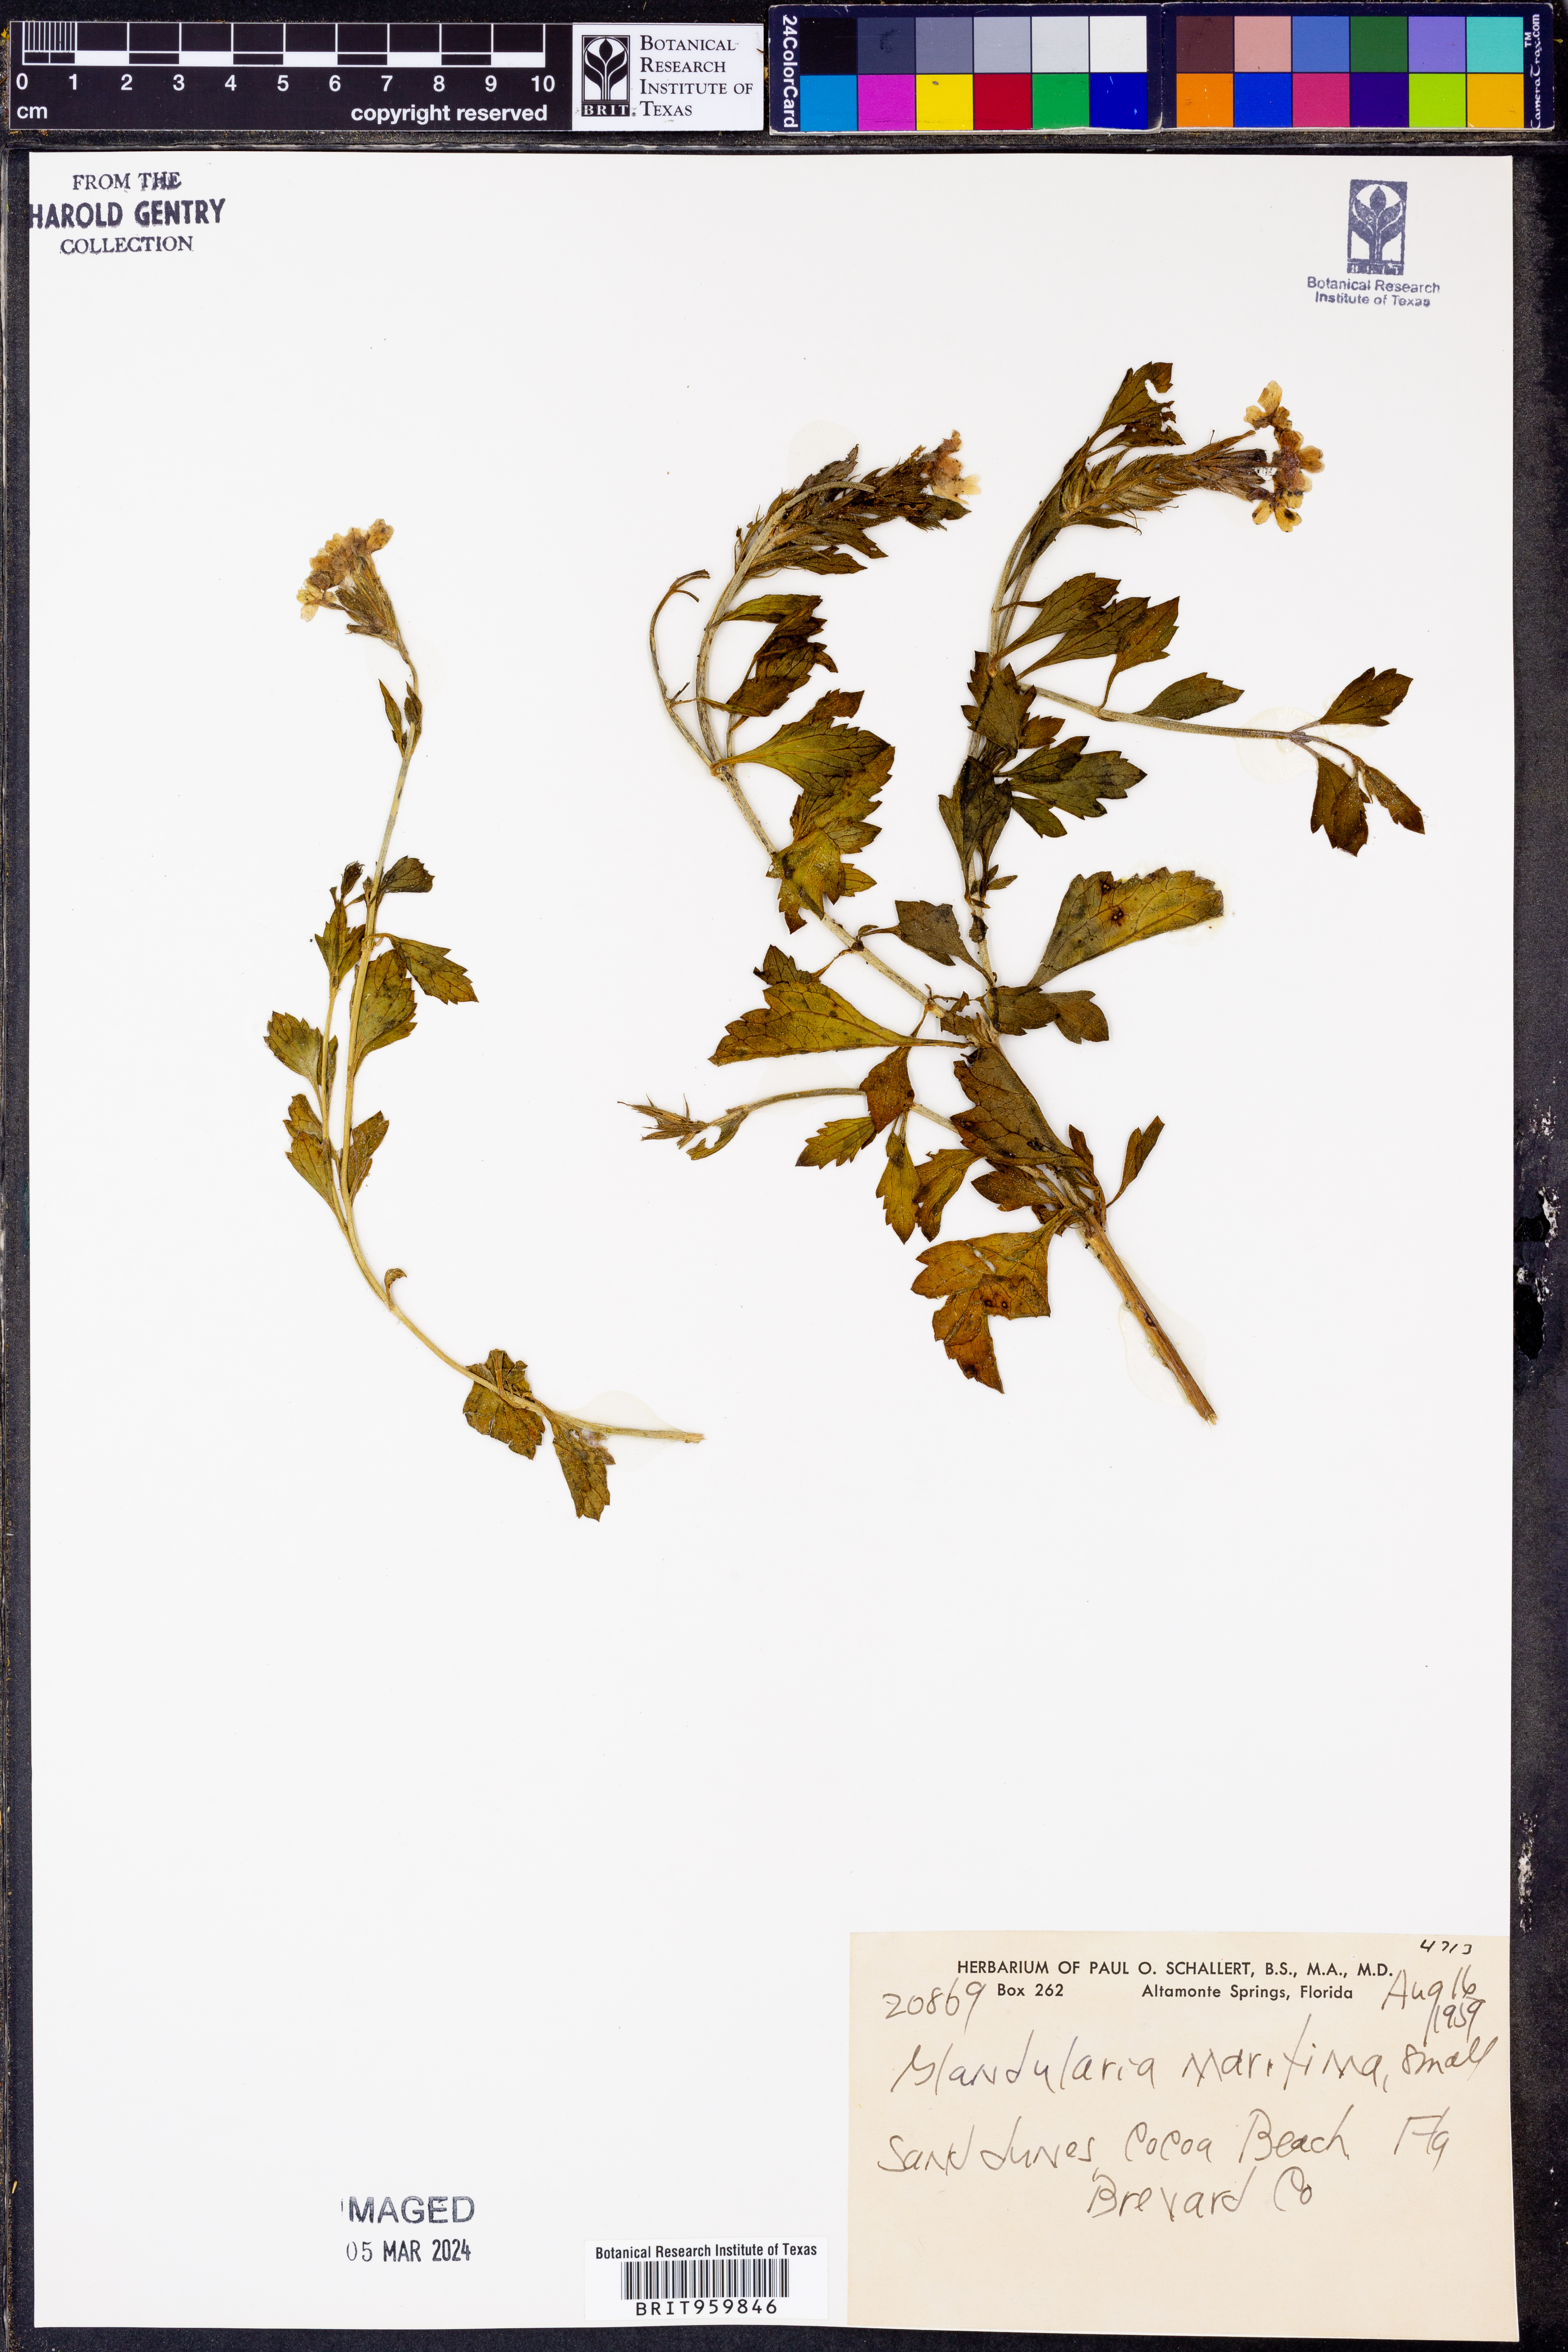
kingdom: Plantae
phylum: Tracheophyta
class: Magnoliopsida
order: Lamiales
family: Verbenaceae
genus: Verbena
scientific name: Verbena maritima
